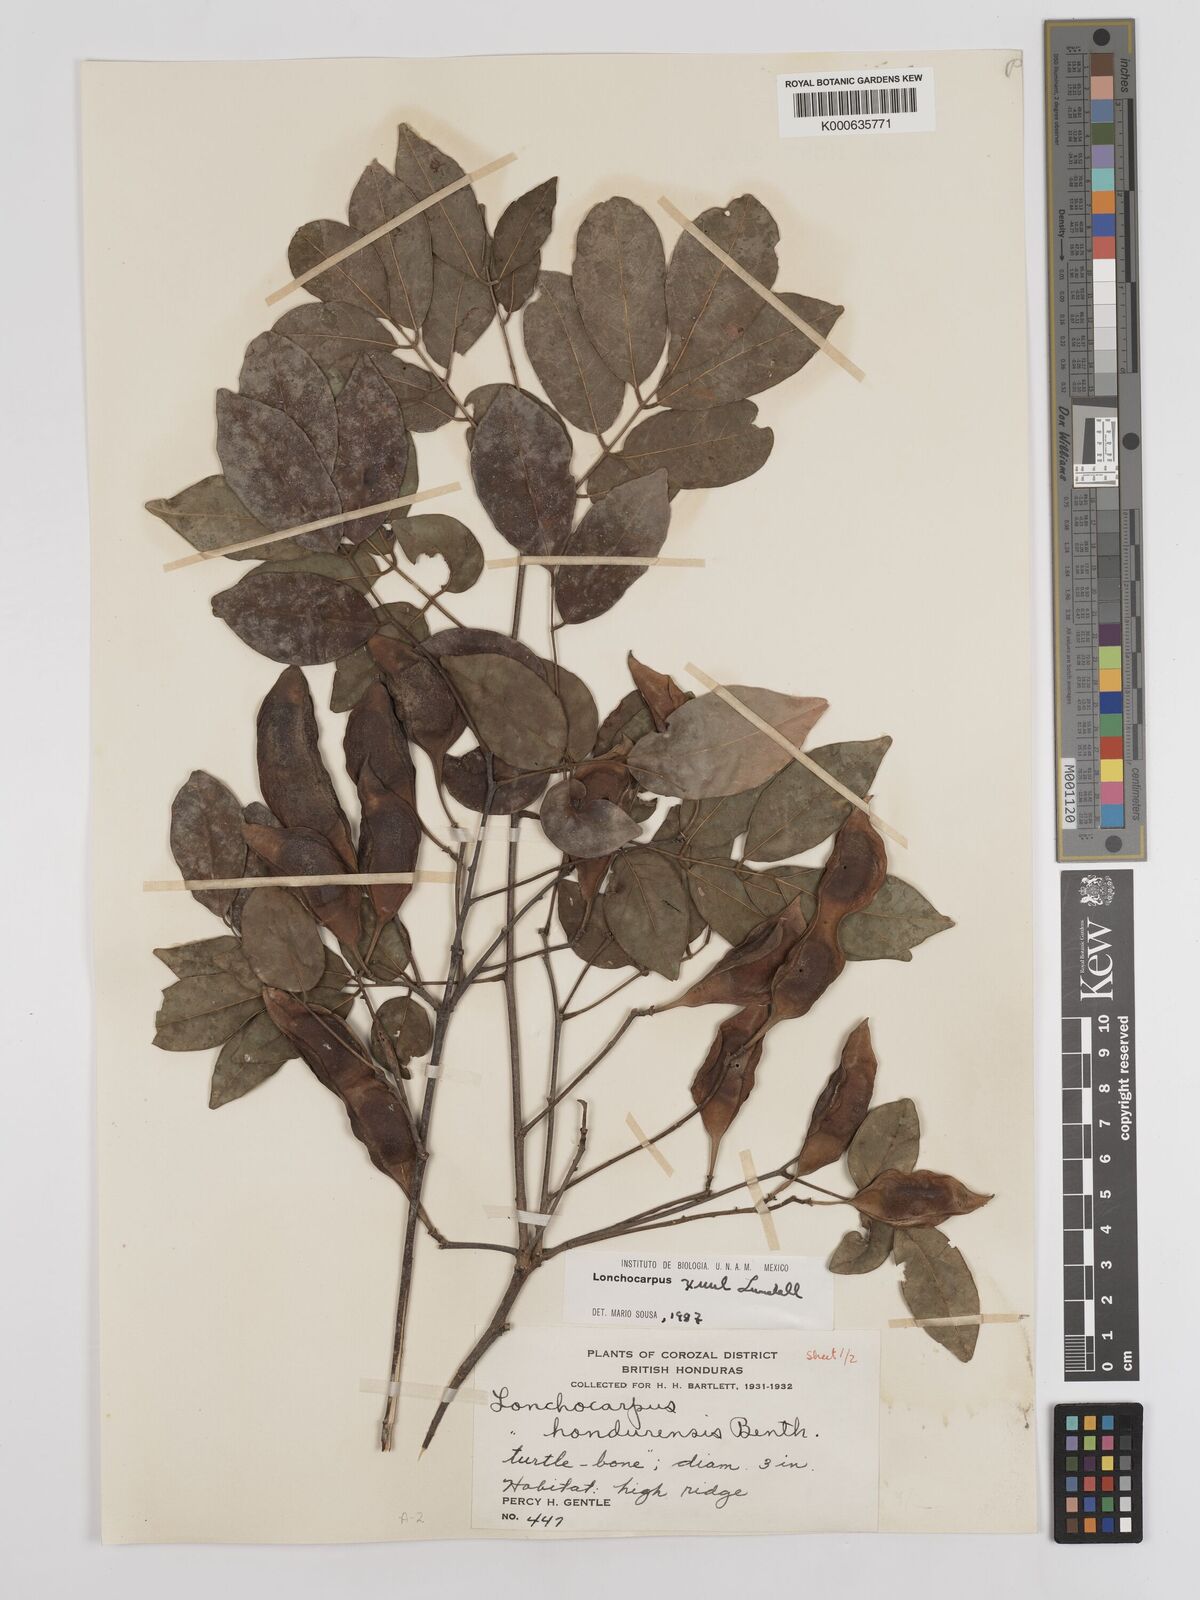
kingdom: Plantae
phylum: Tracheophyta
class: Magnoliopsida
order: Fabales
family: Fabaceae
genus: Lonchocarpus
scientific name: Lonchocarpus guatemalensis
